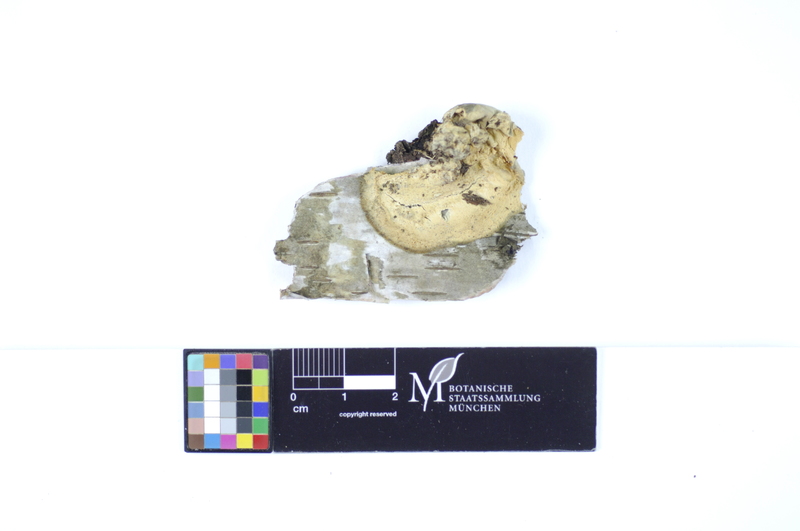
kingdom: Fungi
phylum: Basidiomycota
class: Agaricomycetes
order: Polyporales
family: Hyphodermataceae
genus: Hyphoderma
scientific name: Hyphoderma setigerum
